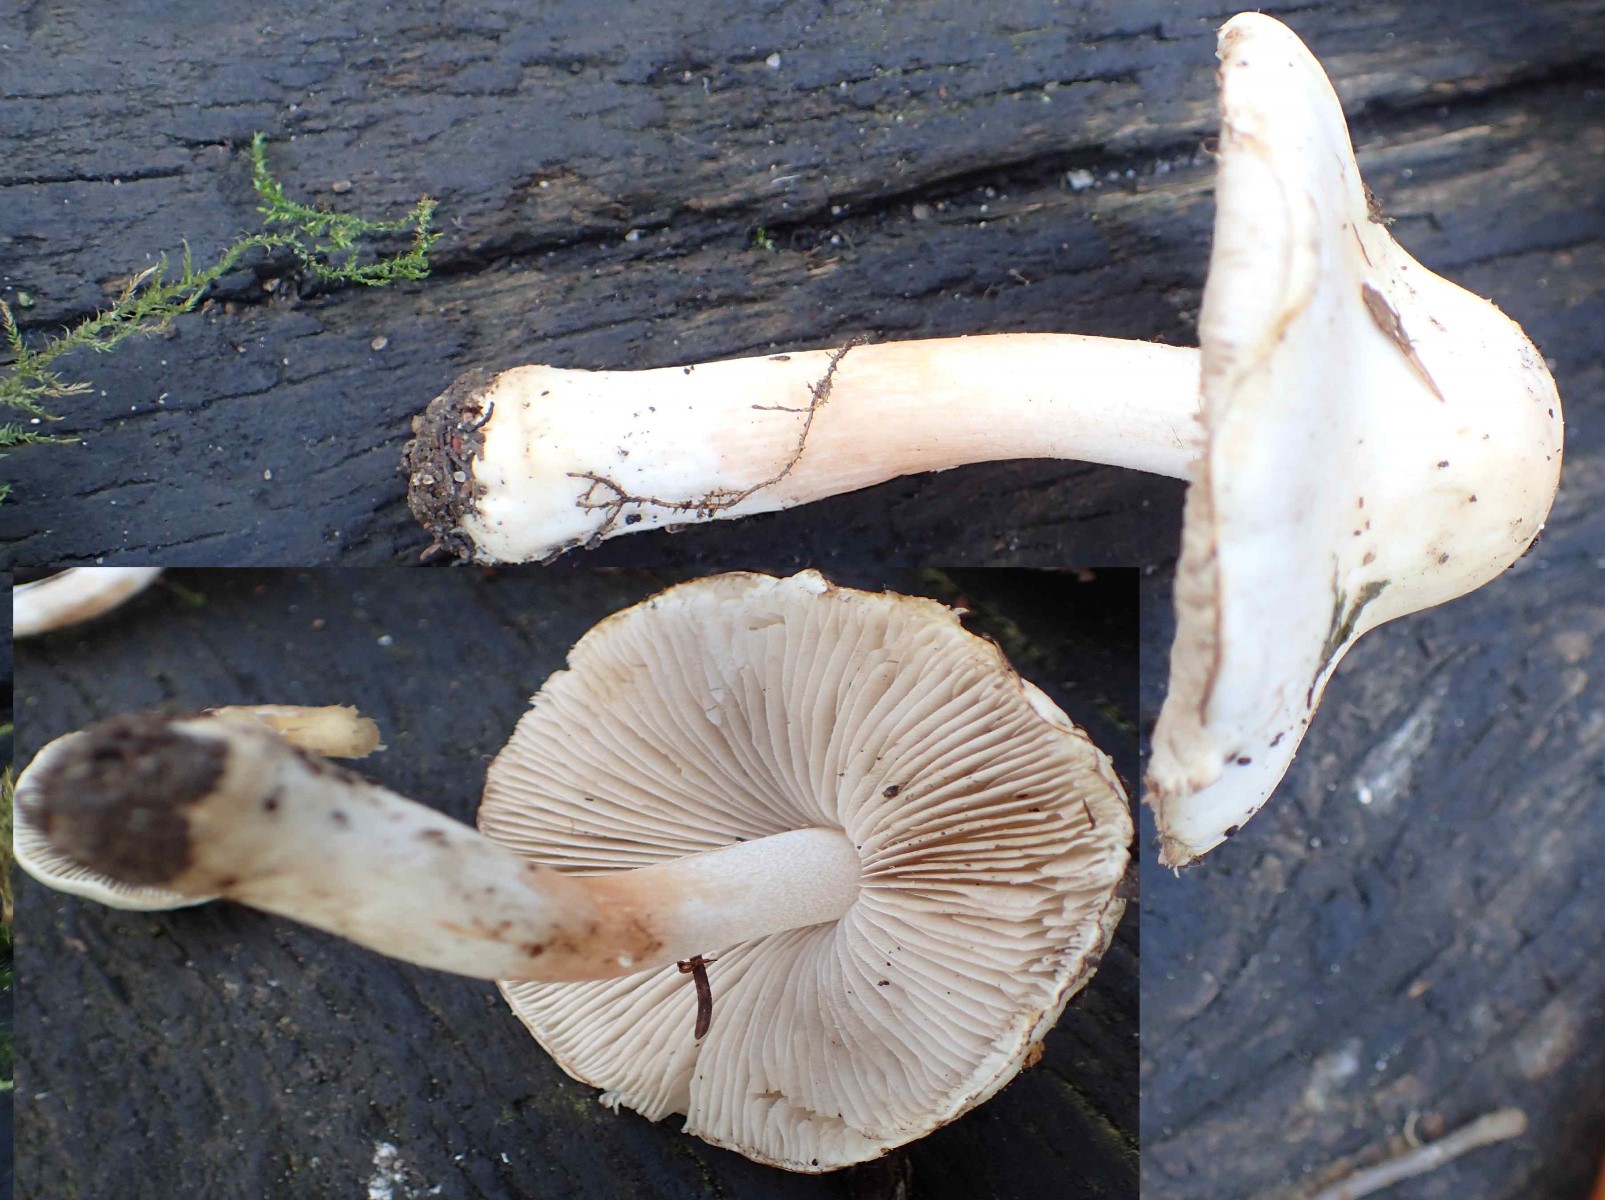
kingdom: Fungi
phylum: Basidiomycota
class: Agaricomycetes
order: Agaricales
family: Inocybaceae
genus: Inocybe
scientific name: Inocybe
